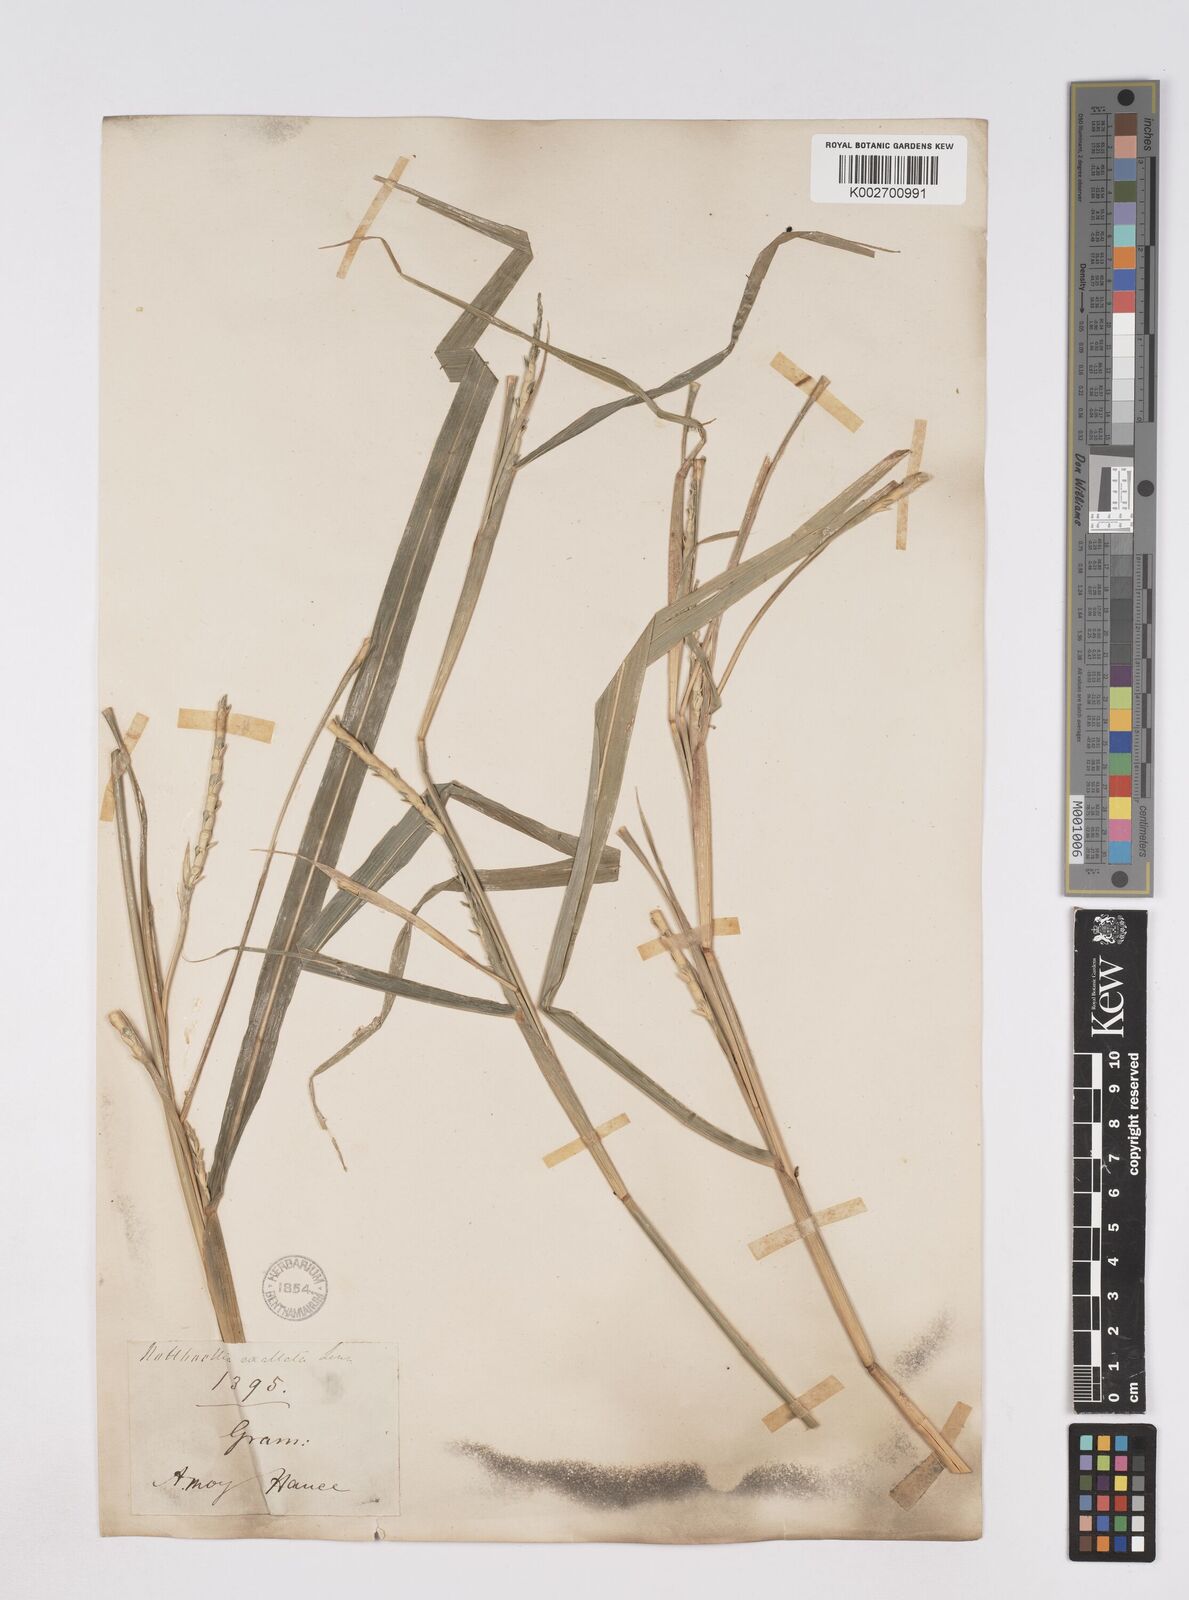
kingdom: Plantae
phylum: Tracheophyta
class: Liliopsida
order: Poales
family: Poaceae
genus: Ophiuros
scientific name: Ophiuros exaltatus
